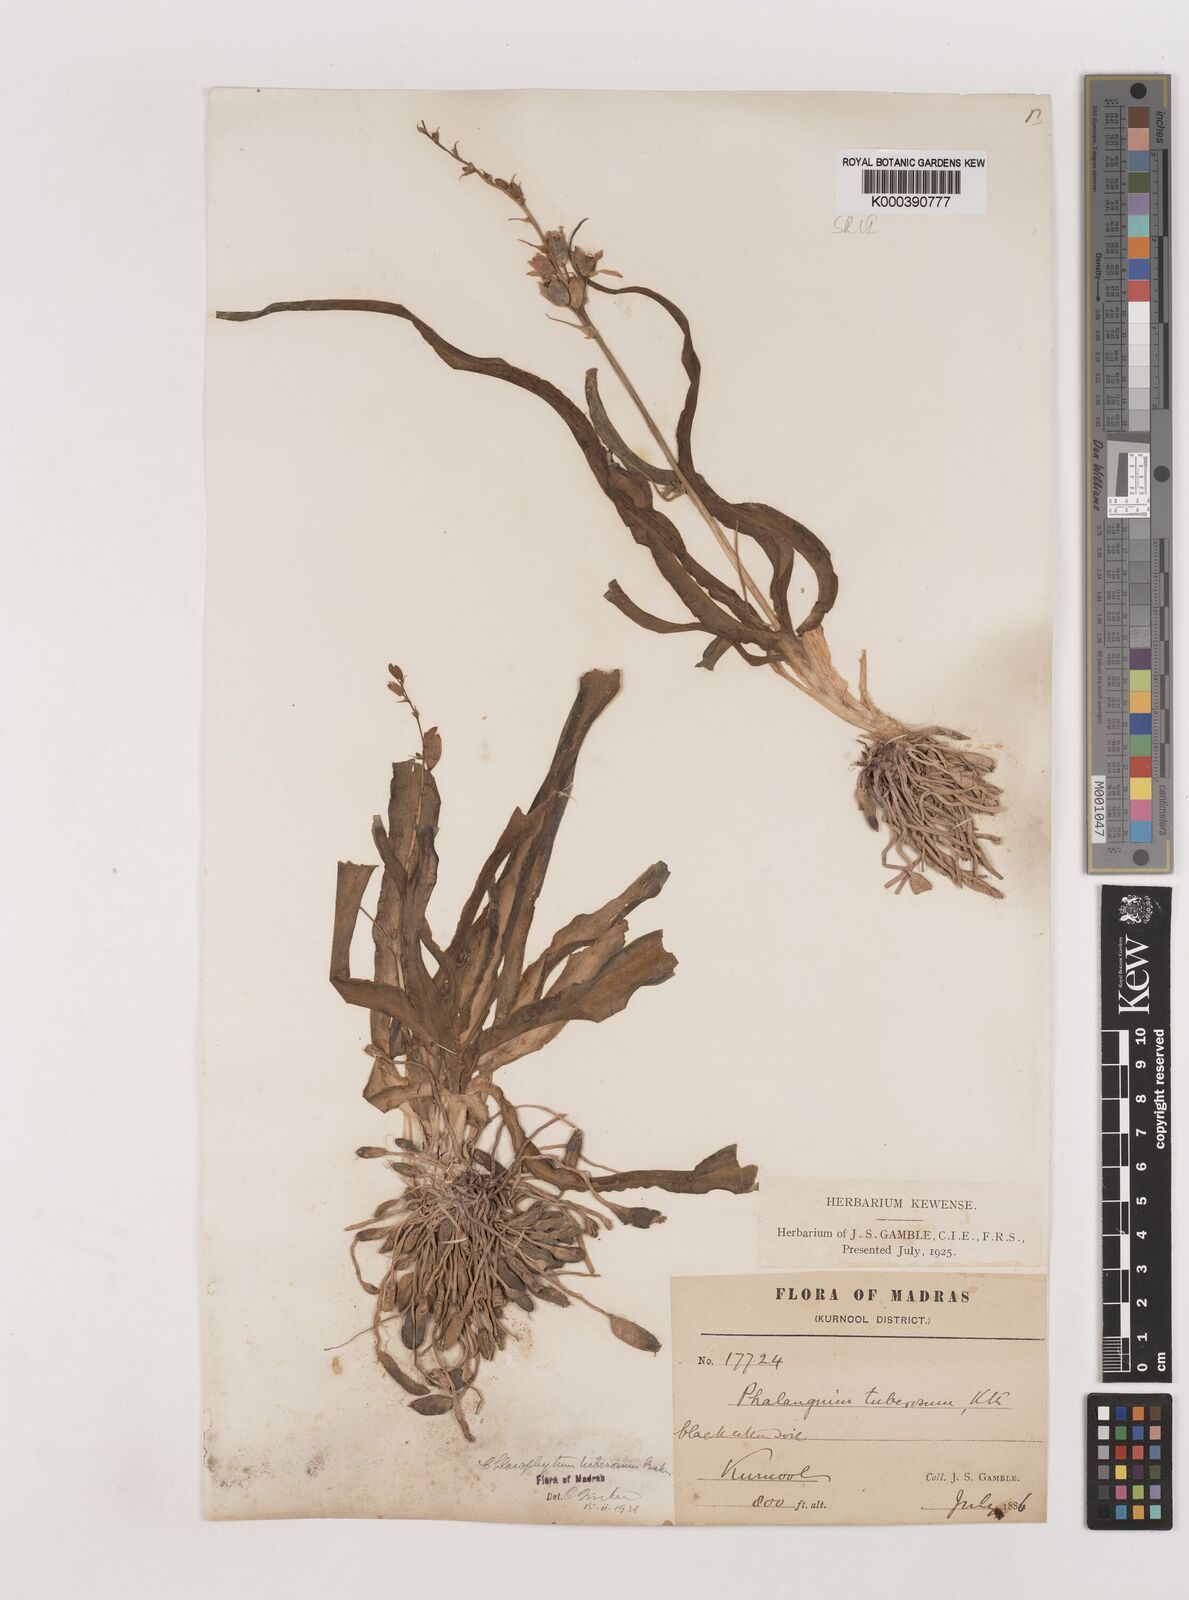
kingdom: Plantae
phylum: Tracheophyta
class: Liliopsida
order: Asparagales
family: Asparagaceae
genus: Chlorophytum
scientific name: Chlorophytum tuberosum
